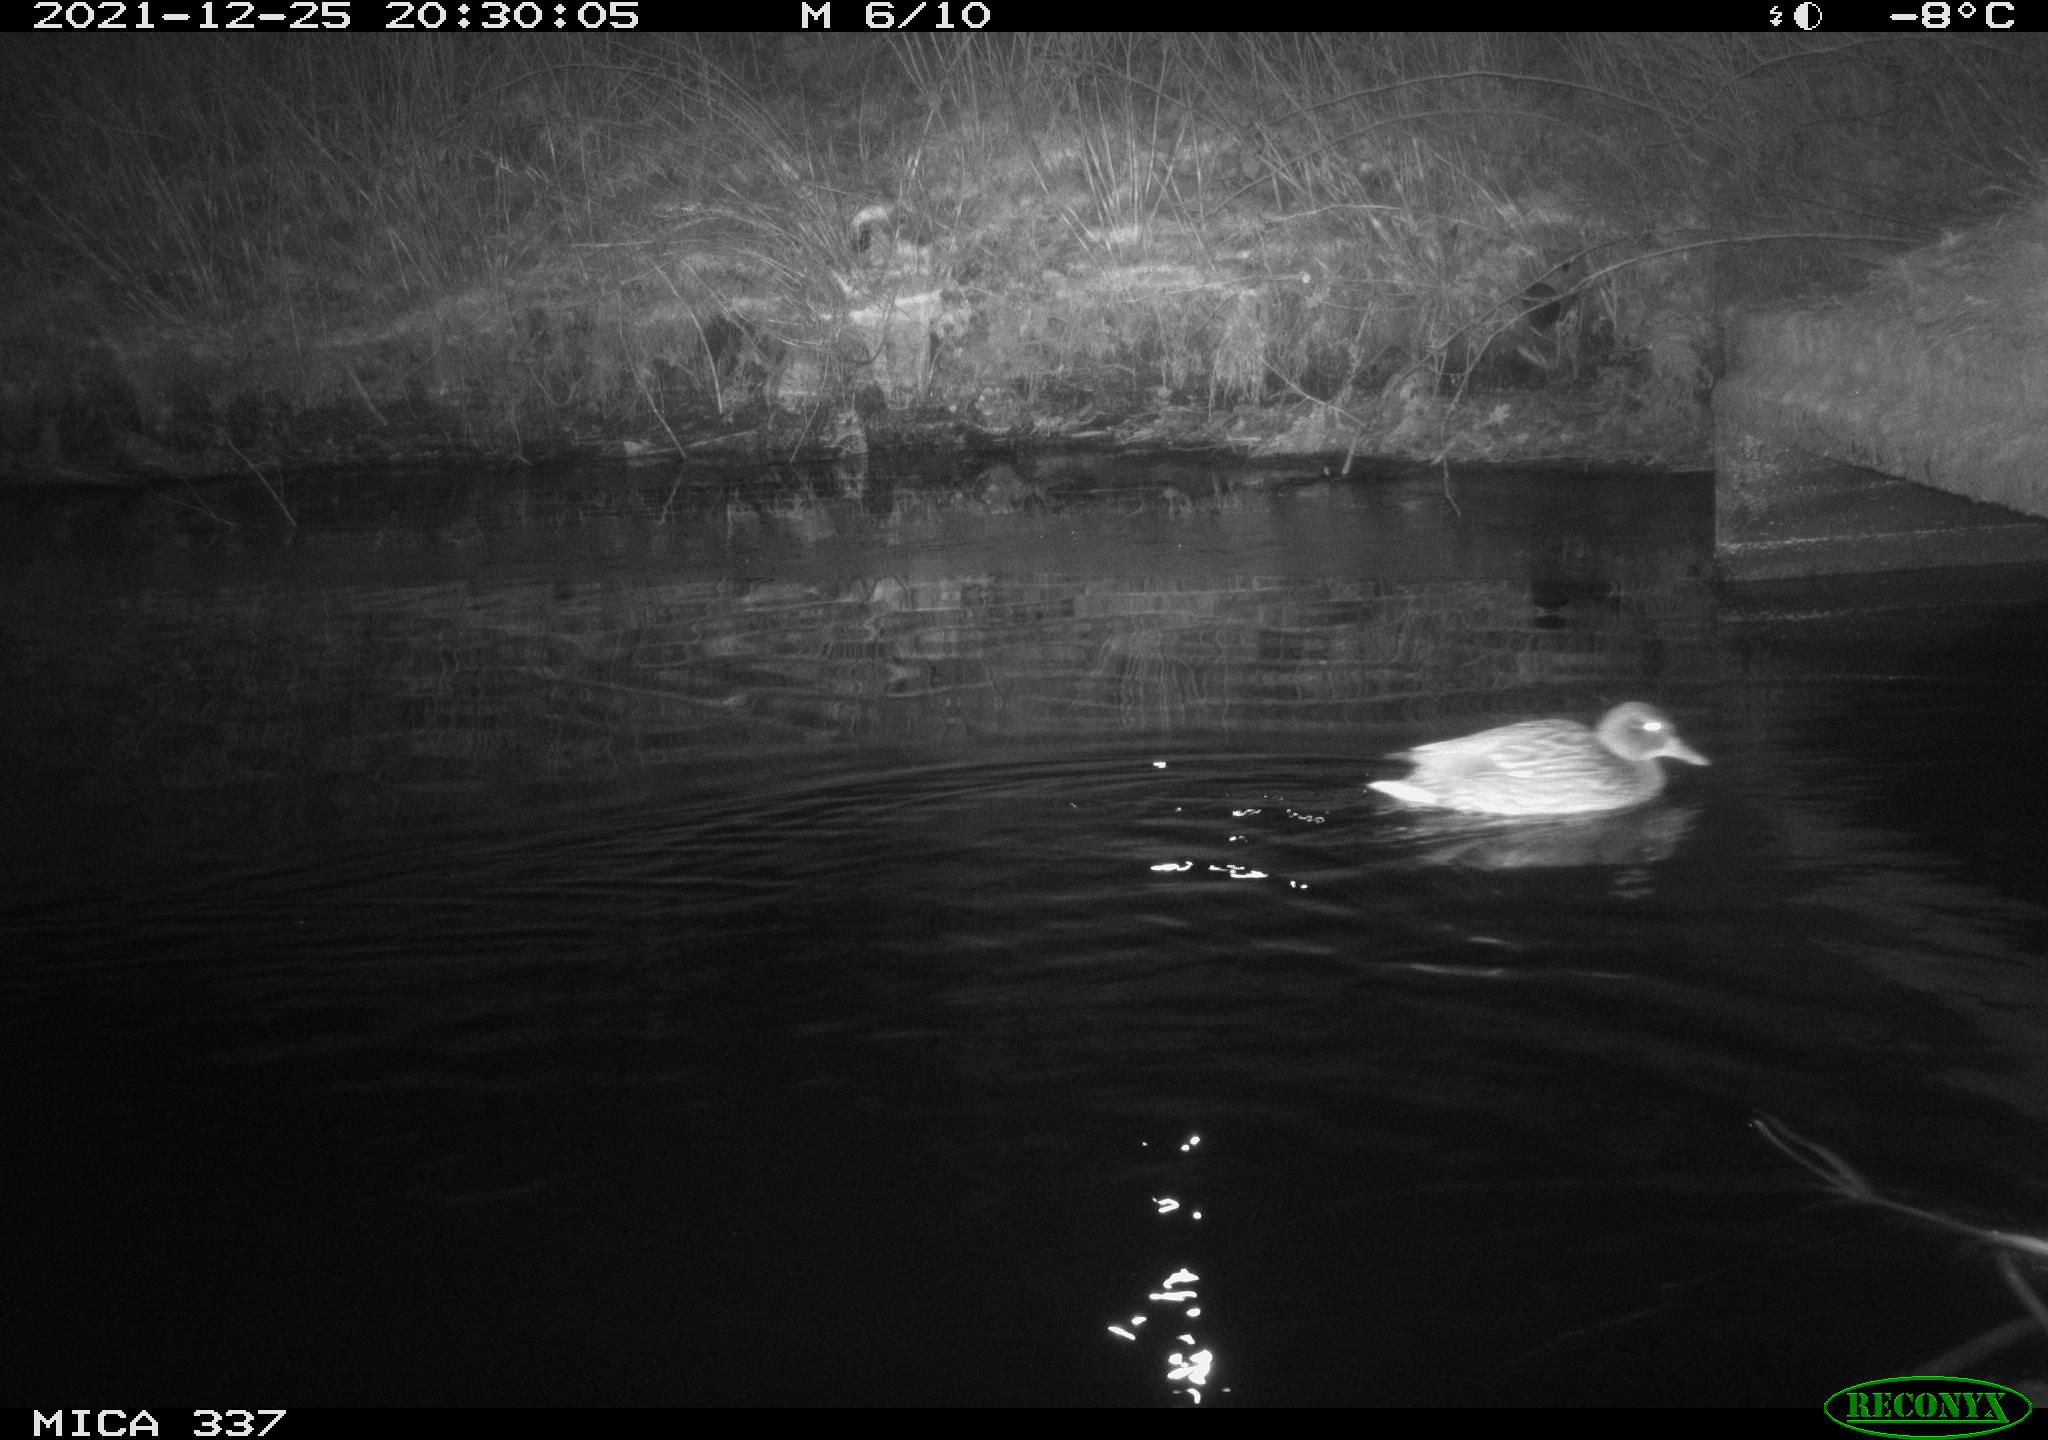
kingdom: Animalia
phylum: Chordata
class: Aves
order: Anseriformes
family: Anatidae
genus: Anas
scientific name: Anas platyrhynchos
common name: Mallard
